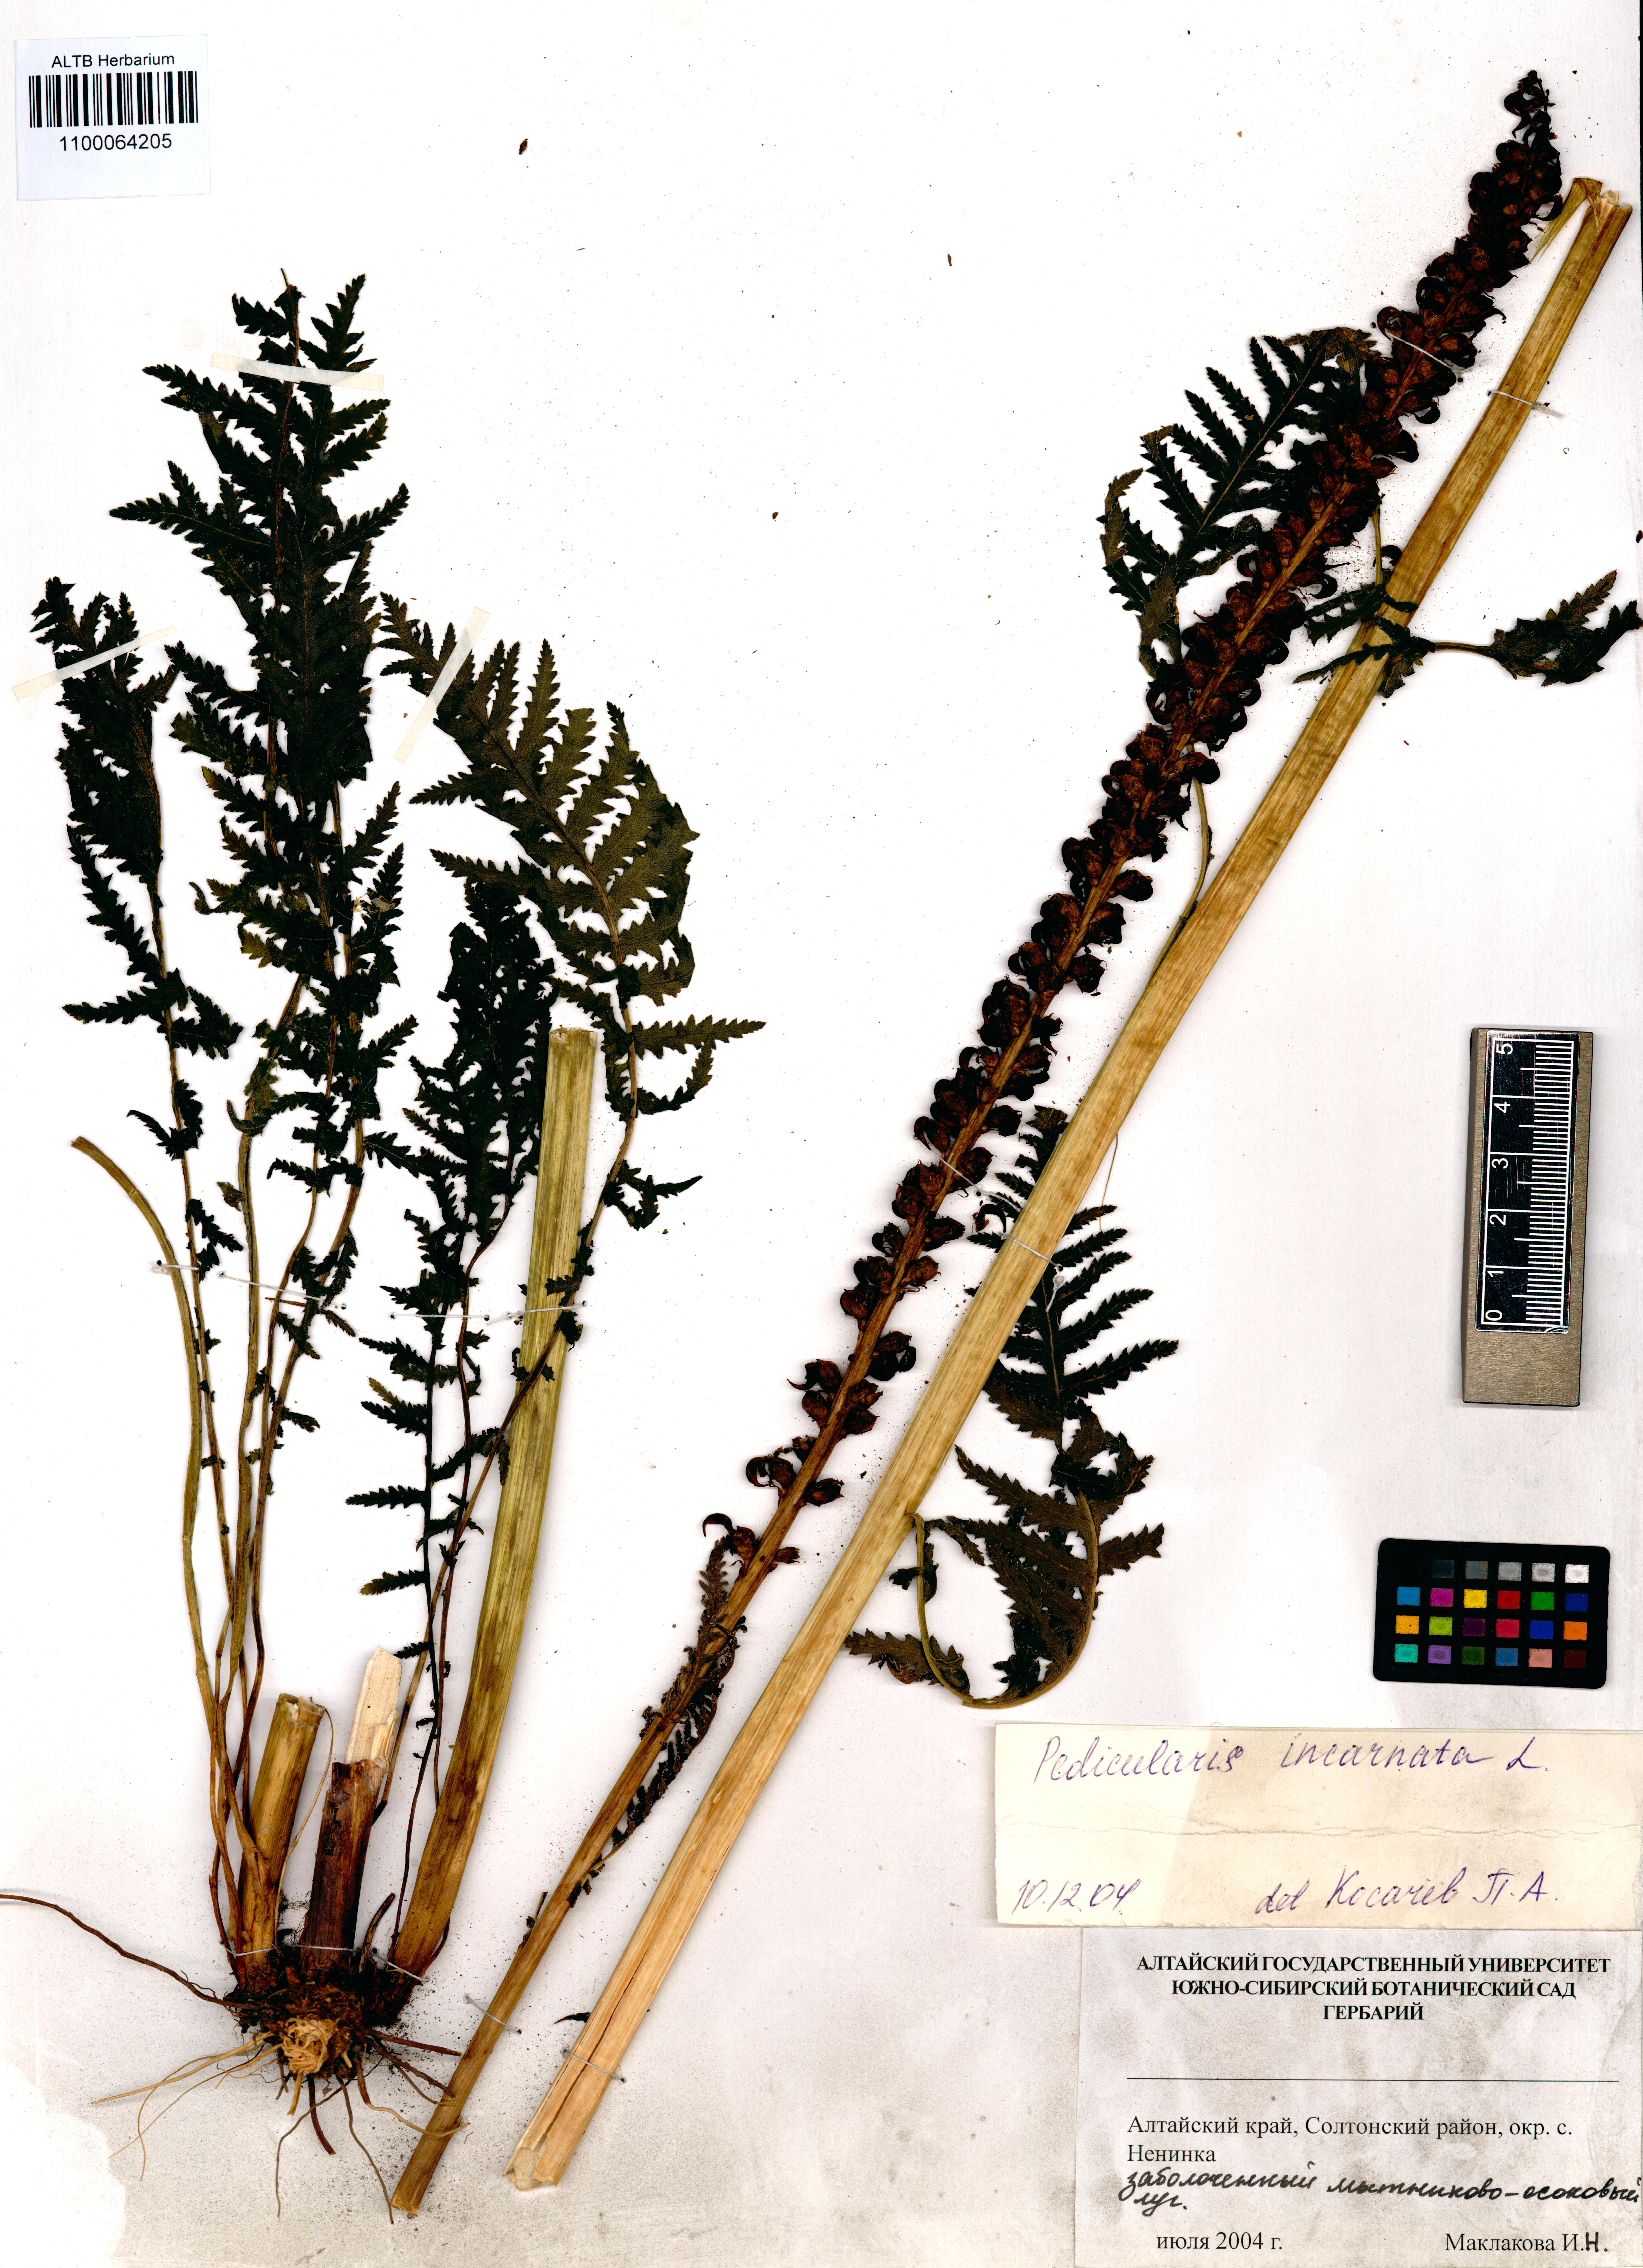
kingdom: Plantae
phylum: Tracheophyta
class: Magnoliopsida
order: Lamiales
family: Orobanchaceae
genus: Pedicularis
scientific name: Pedicularis incarnata
